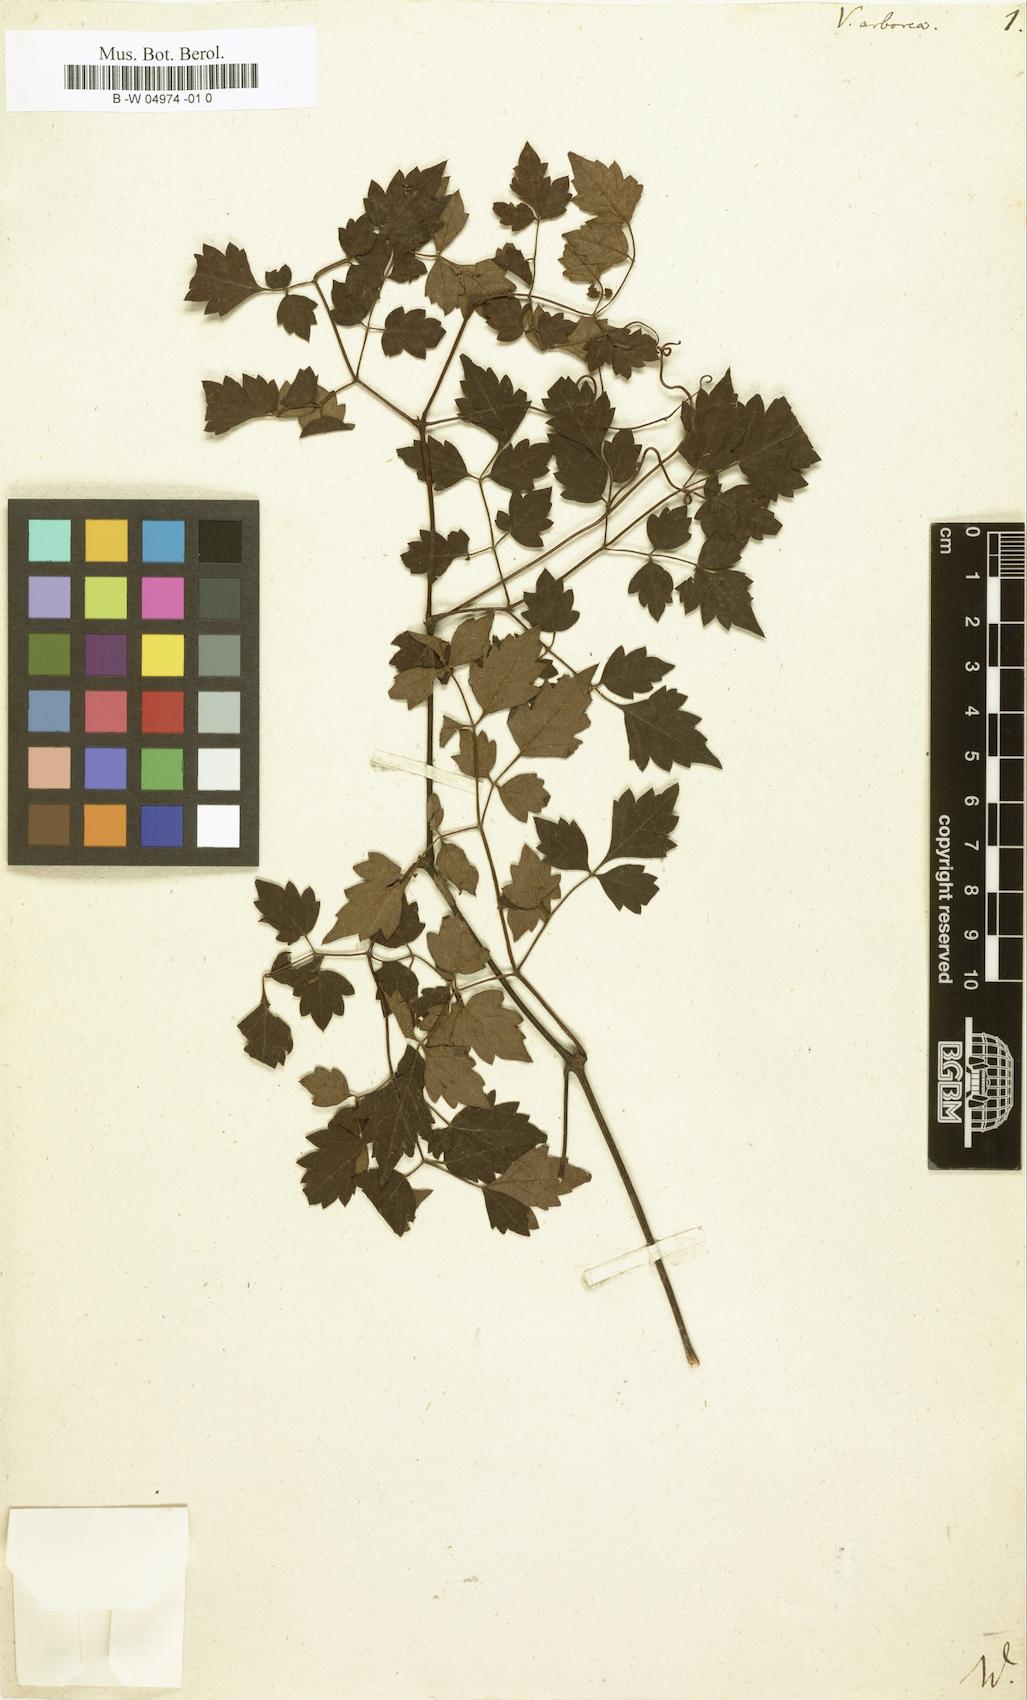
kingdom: Plantae
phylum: Tracheophyta
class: Magnoliopsida
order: Vitales
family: Vitaceae
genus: Nekemias
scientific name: Nekemias arborea
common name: Peppervine
